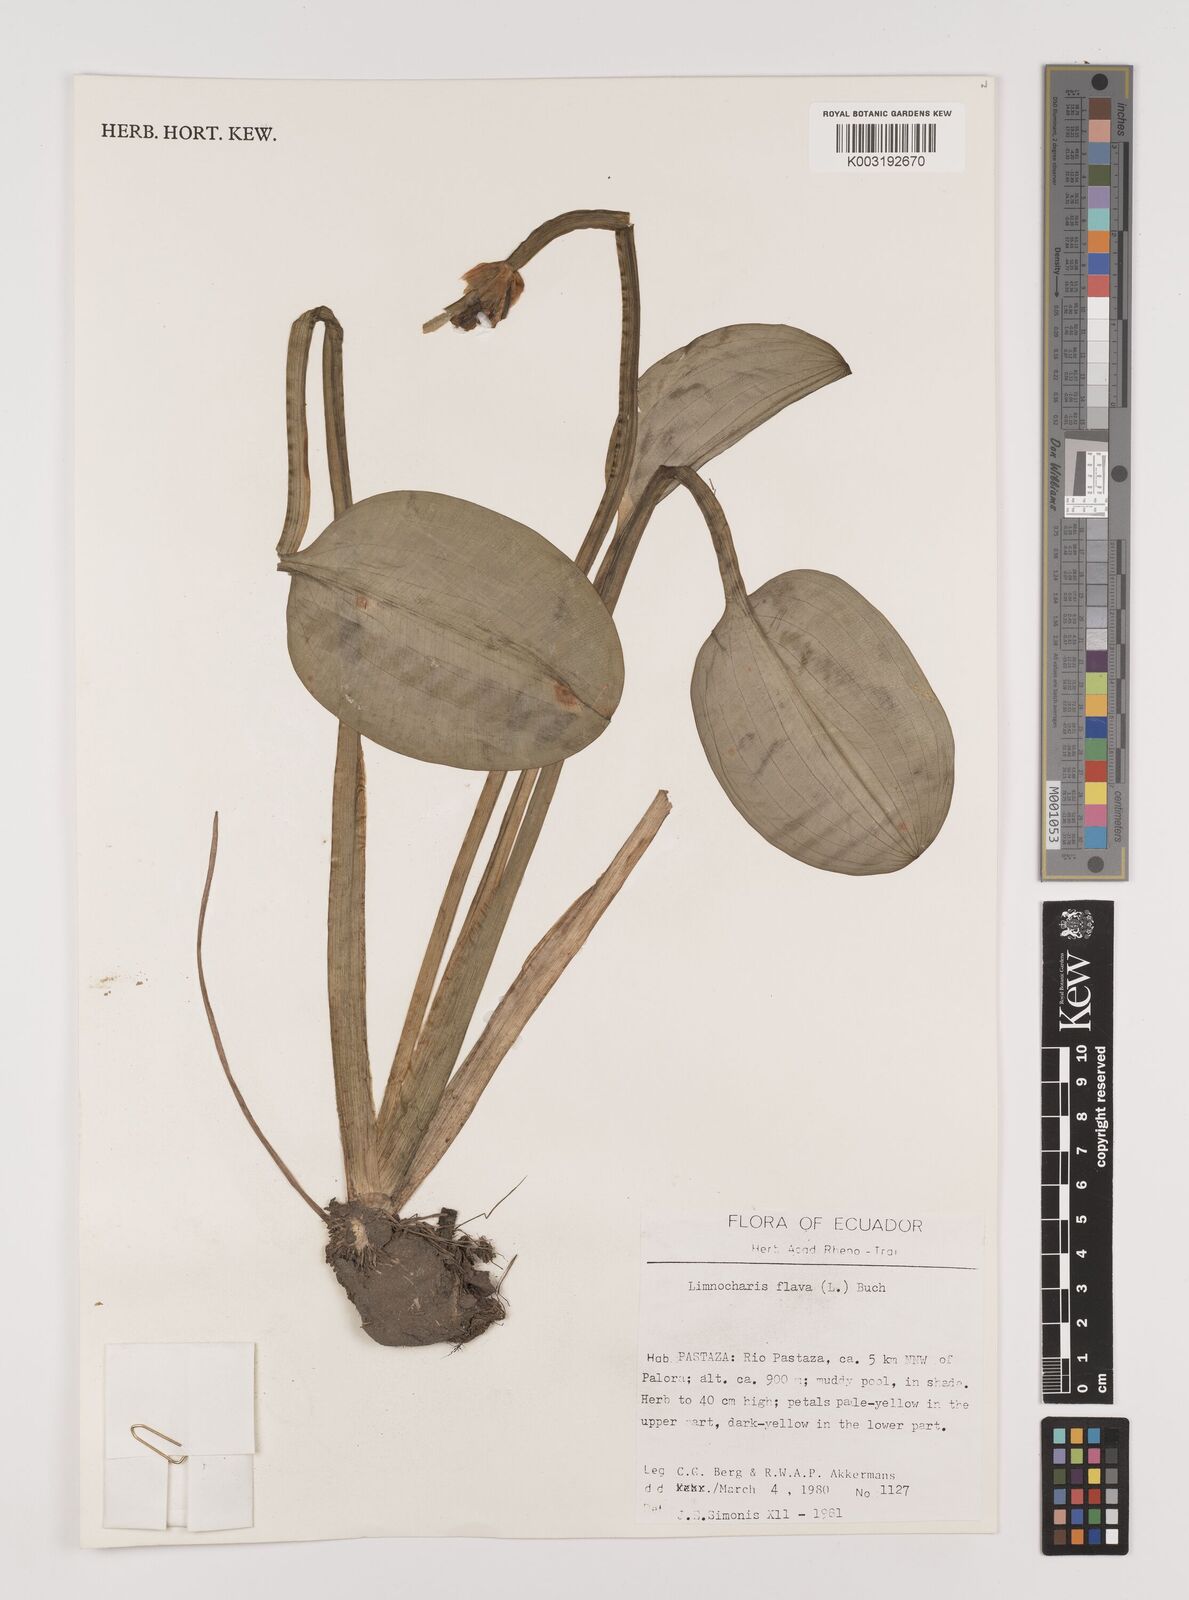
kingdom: Plantae
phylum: Tracheophyta
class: Liliopsida
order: Alismatales
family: Alismataceae
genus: Limnocharis
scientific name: Limnocharis flava
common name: Sawah-flower-rush
